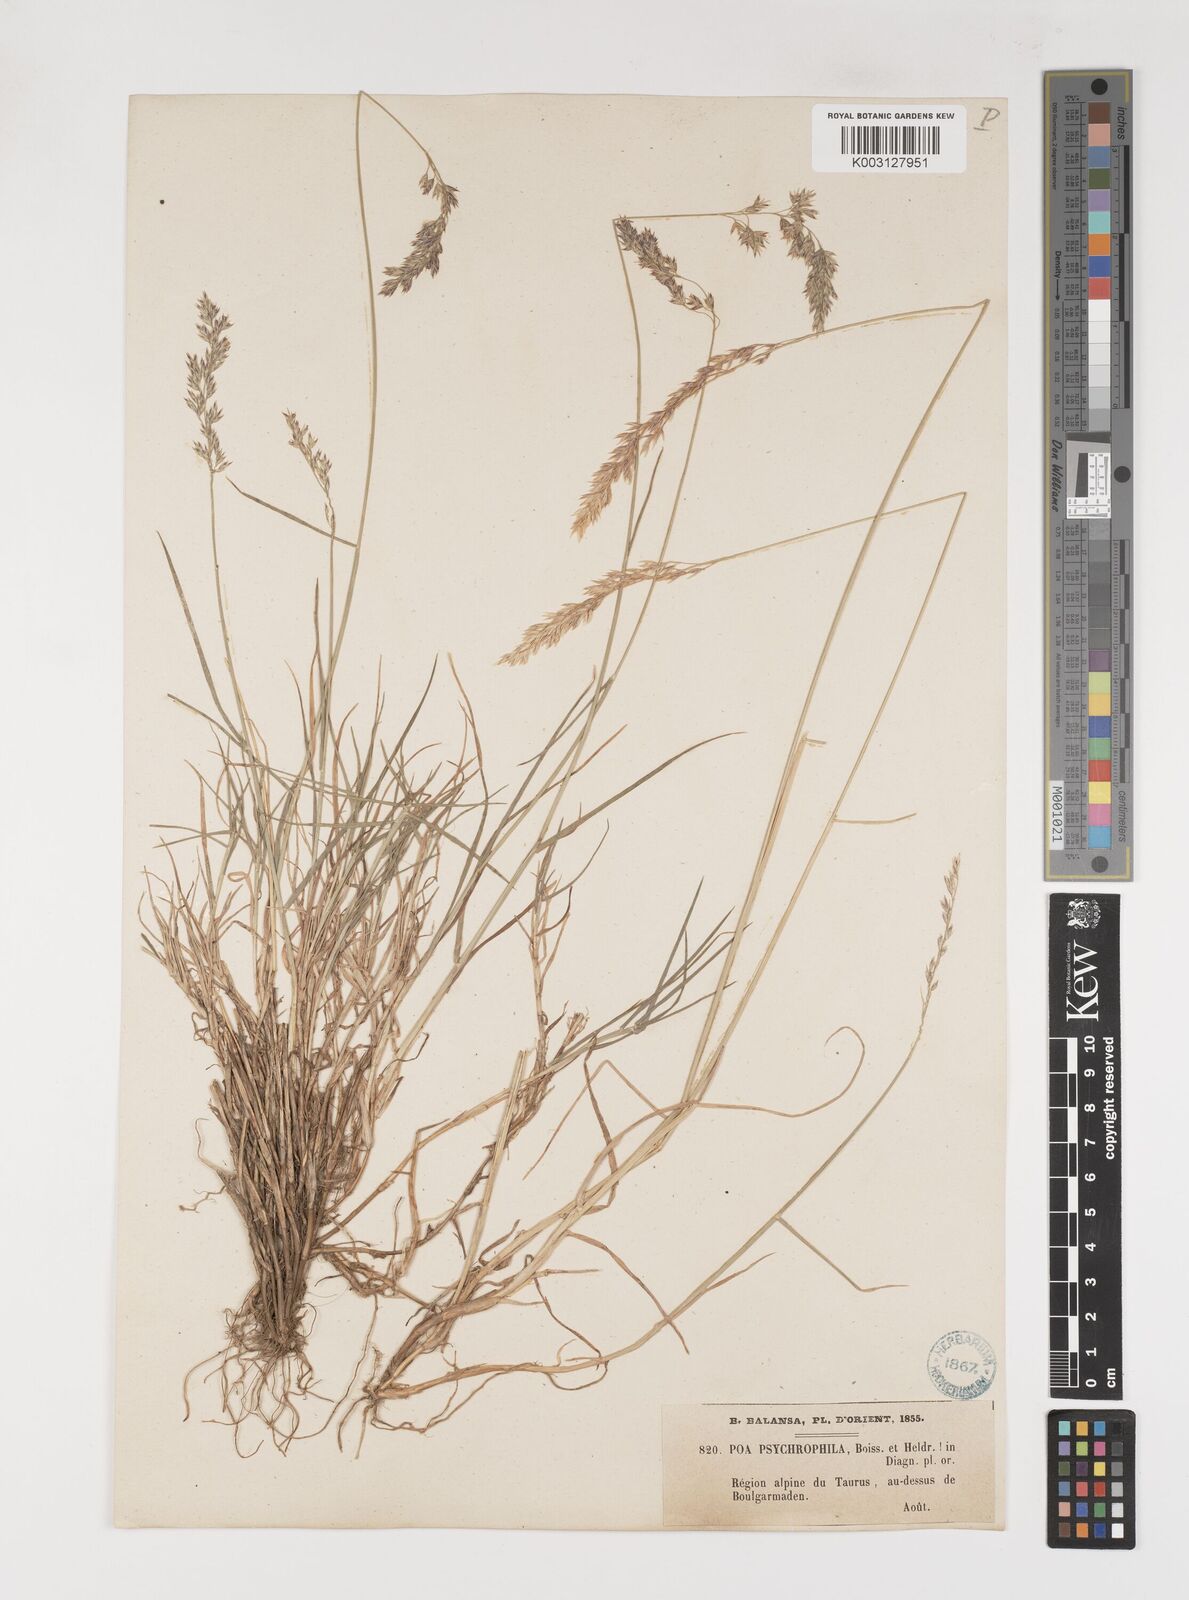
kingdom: Plantae
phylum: Tracheophyta
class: Liliopsida
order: Poales
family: Poaceae
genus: Poa
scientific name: Poa cenisia
